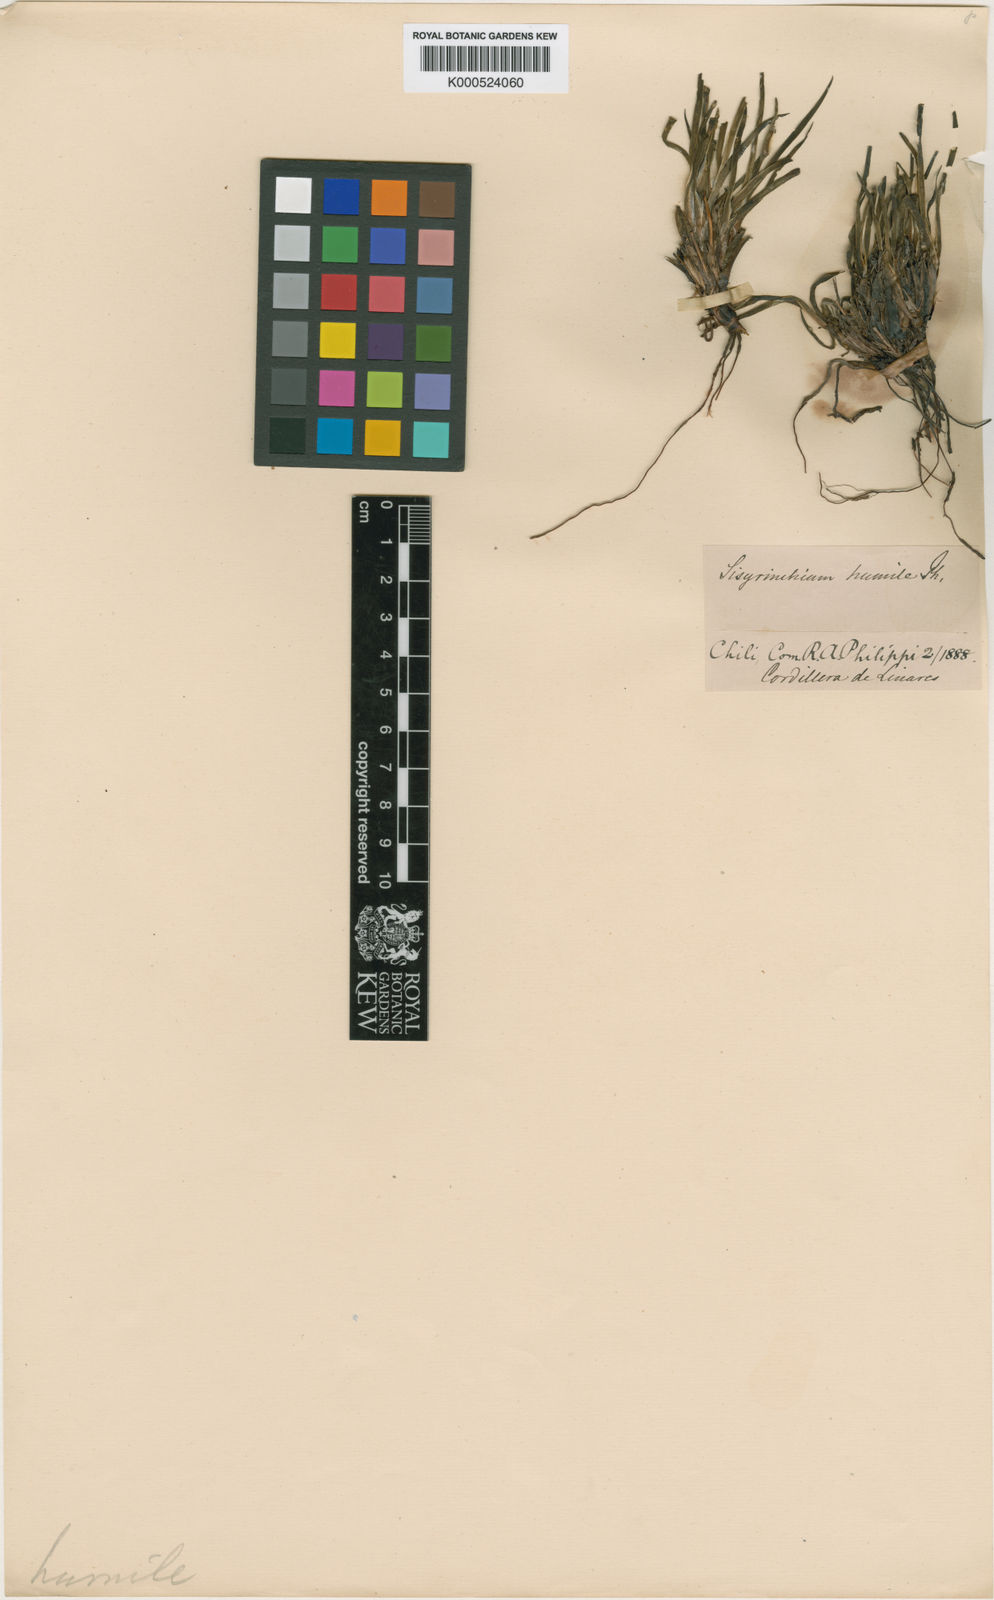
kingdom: Plantae
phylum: Tracheophyta
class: Liliopsida
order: Asparagales
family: Iridaceae
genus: Sisyrinchium
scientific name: Sisyrinchium arenarium
